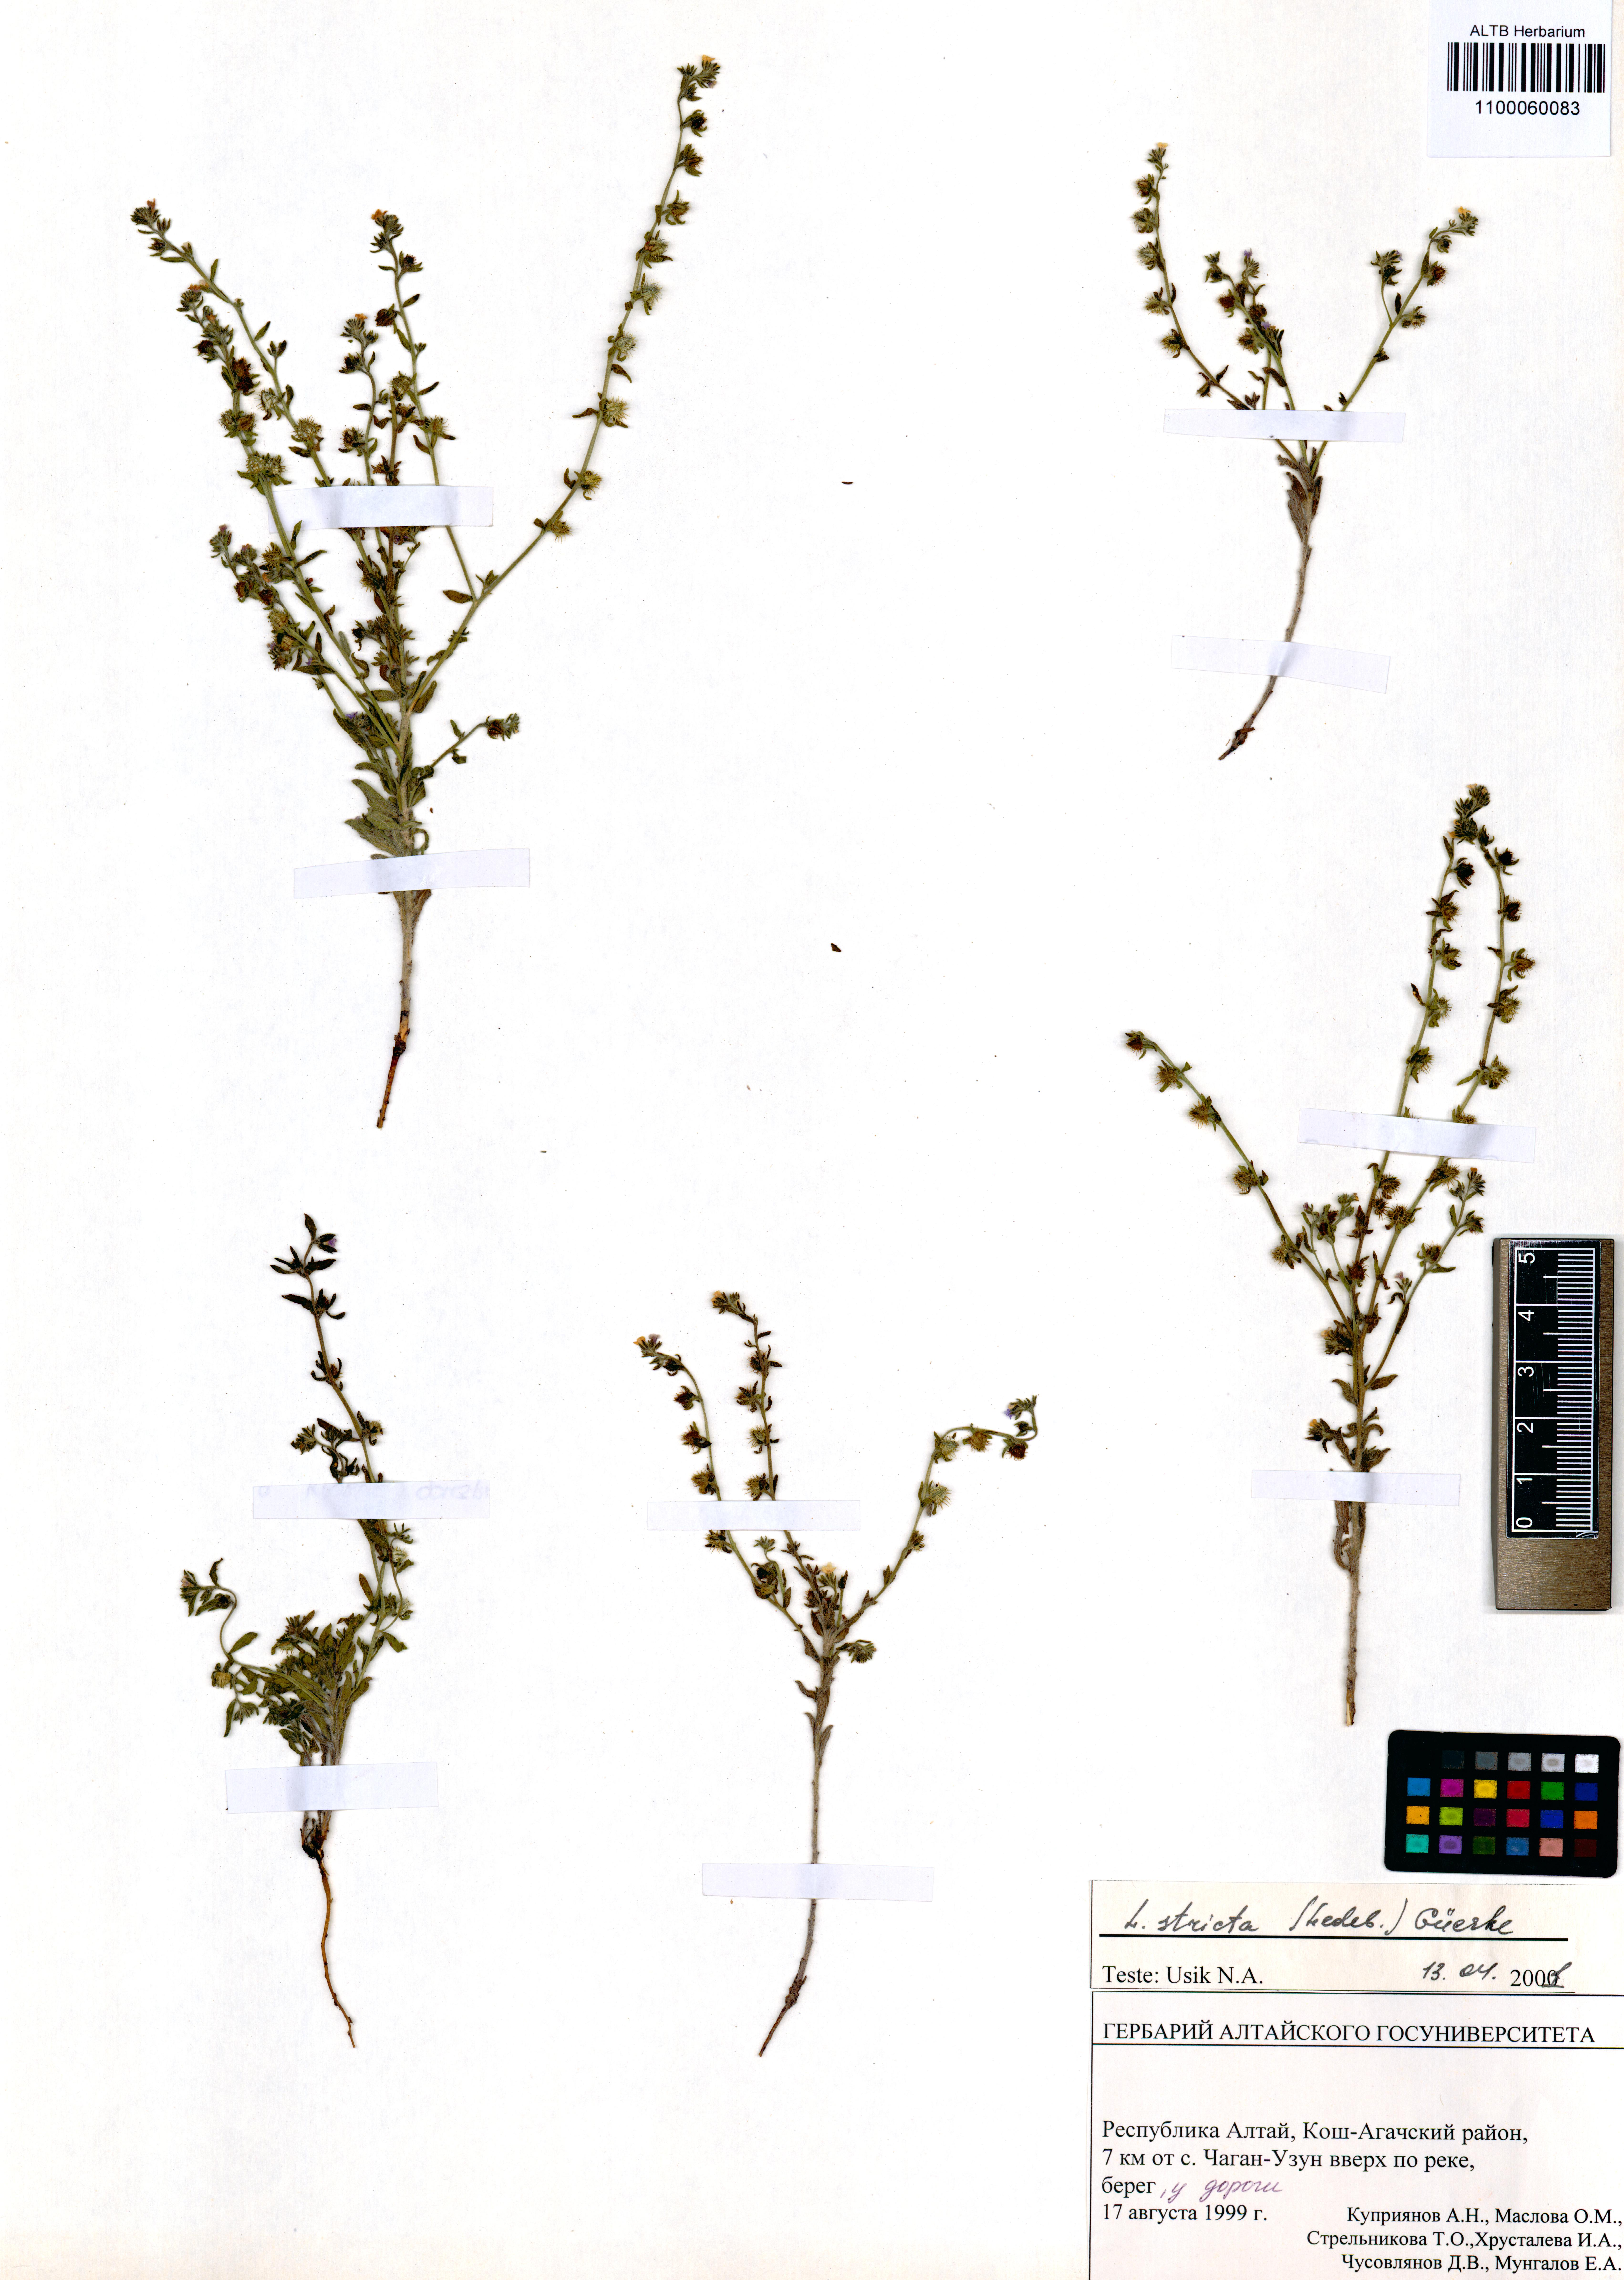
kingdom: Plantae
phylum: Tracheophyta
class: Magnoliopsida
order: Boraginales
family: Boraginaceae
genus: Lappula
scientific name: Lappula stricta
